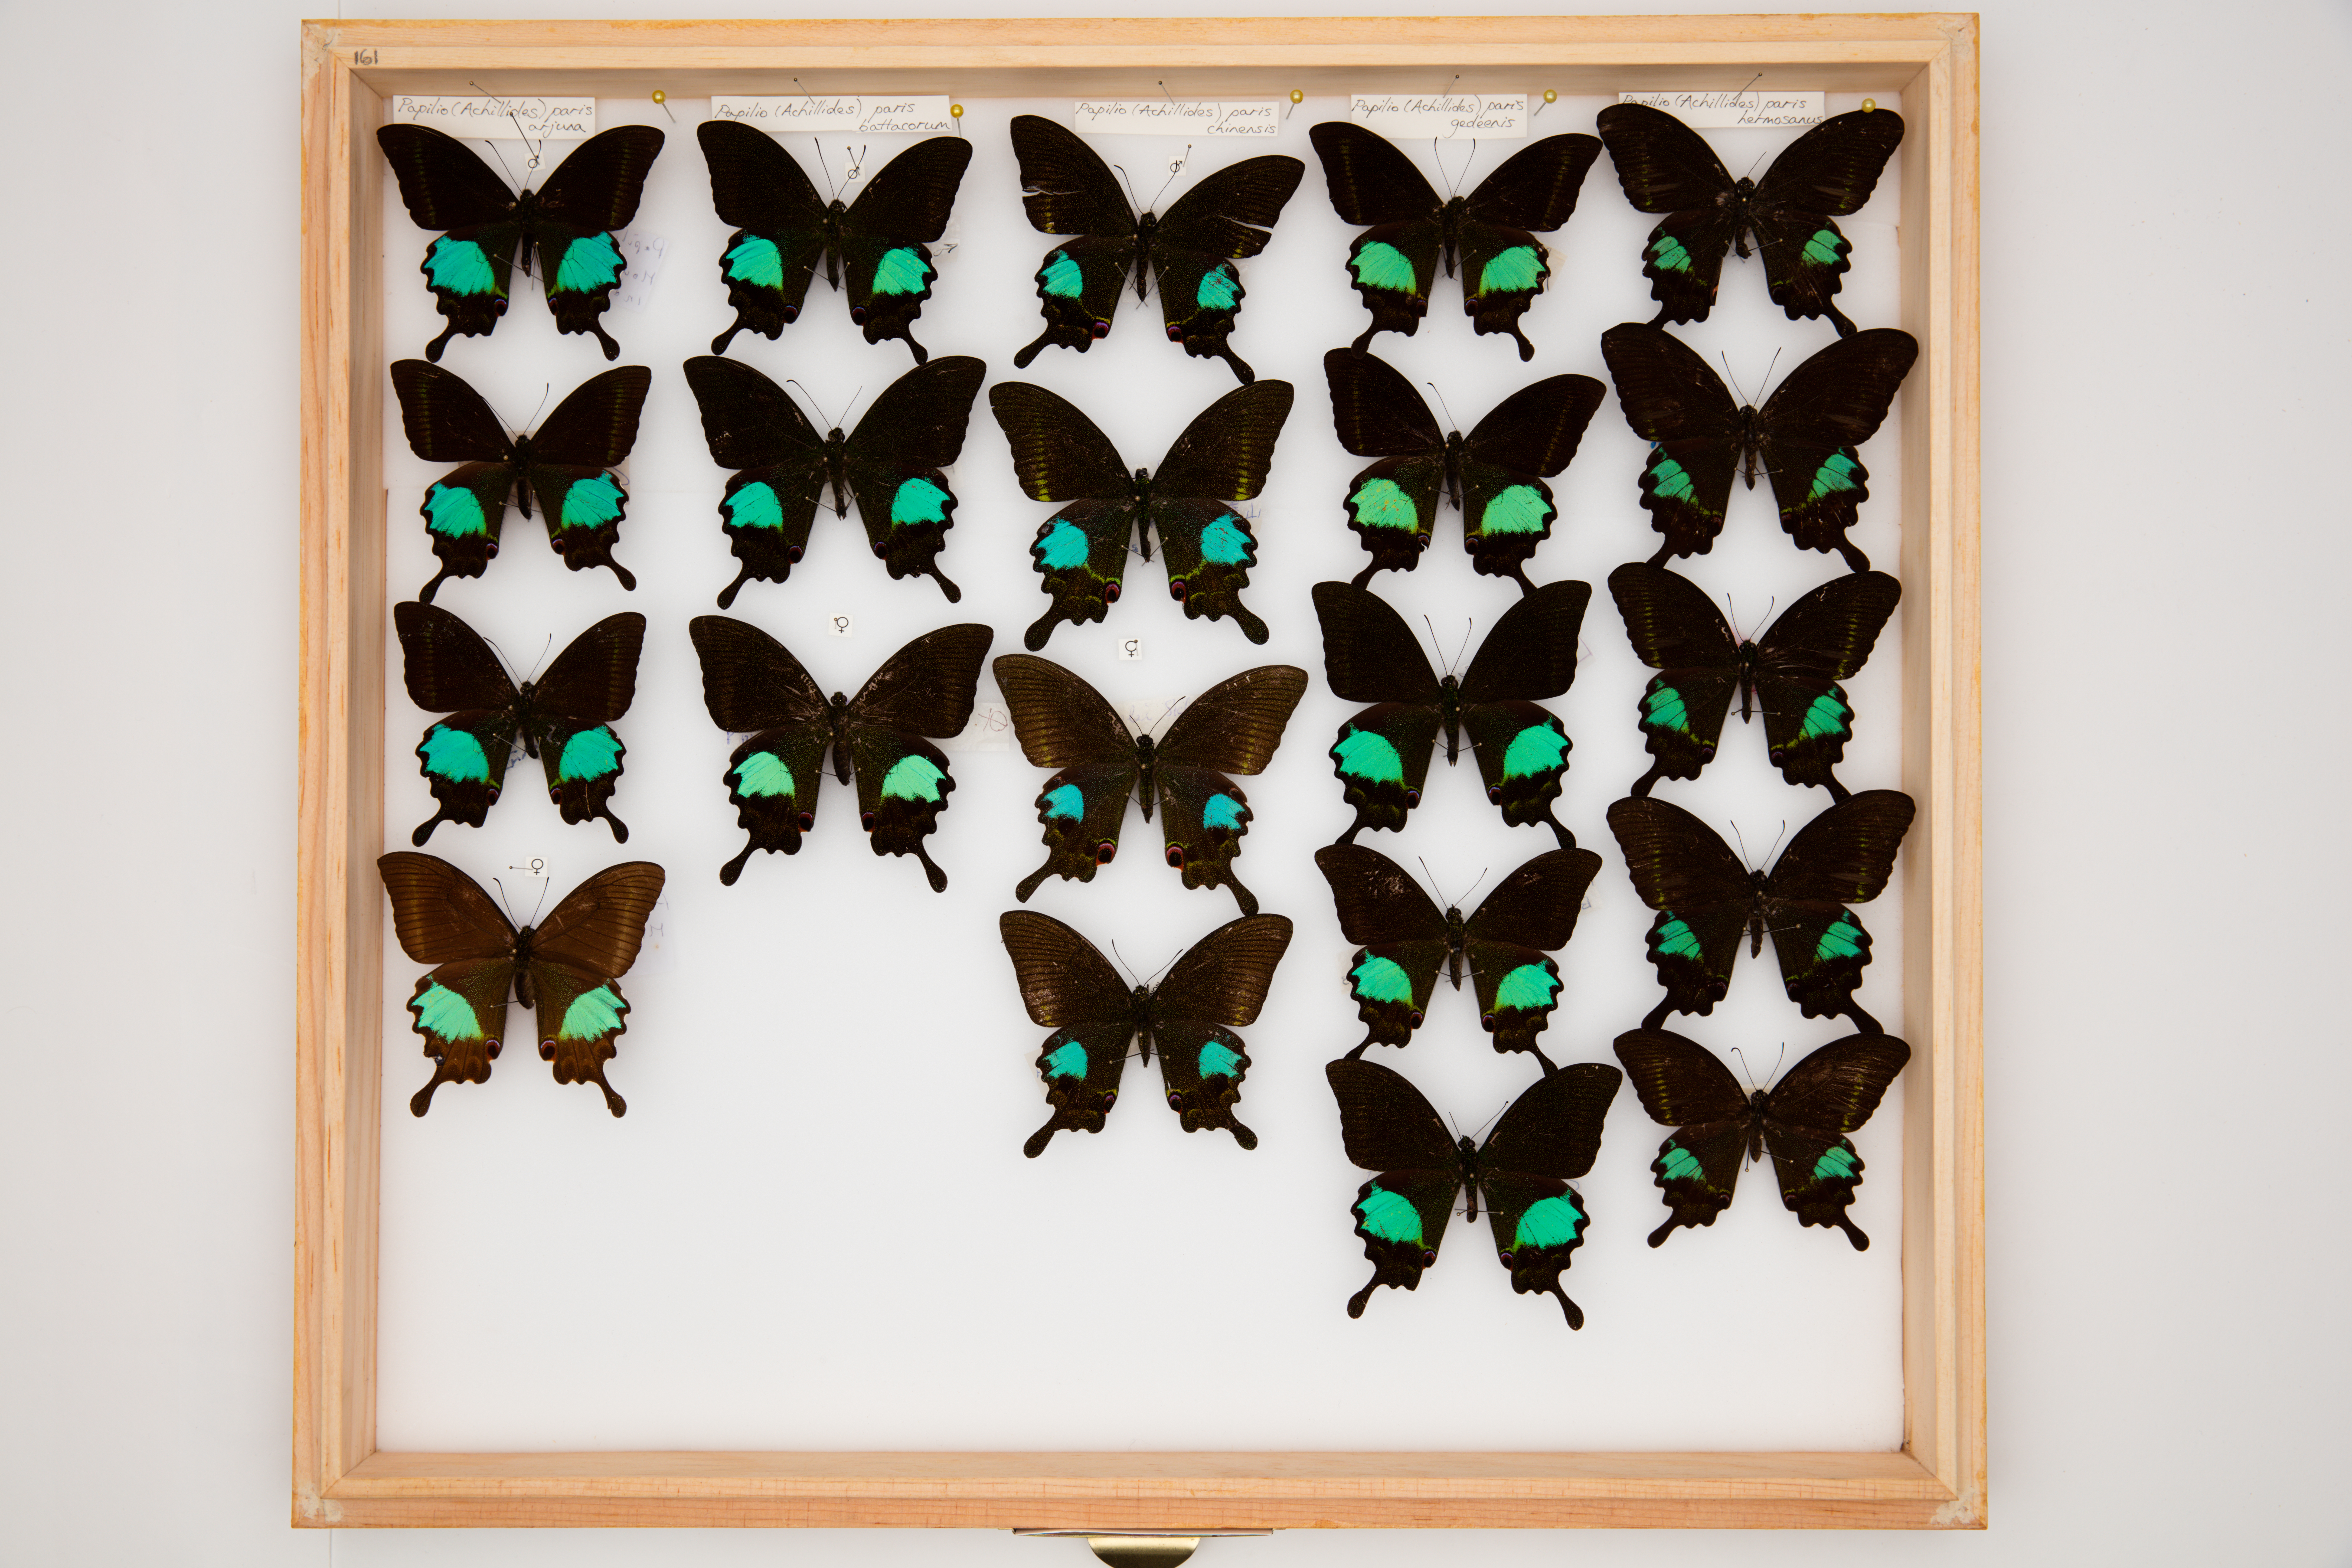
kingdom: Animalia
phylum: Arthropoda
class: Insecta
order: Lepidoptera
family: Papilionidae
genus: Papilio
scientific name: Papilio paris
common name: Paris peacock
